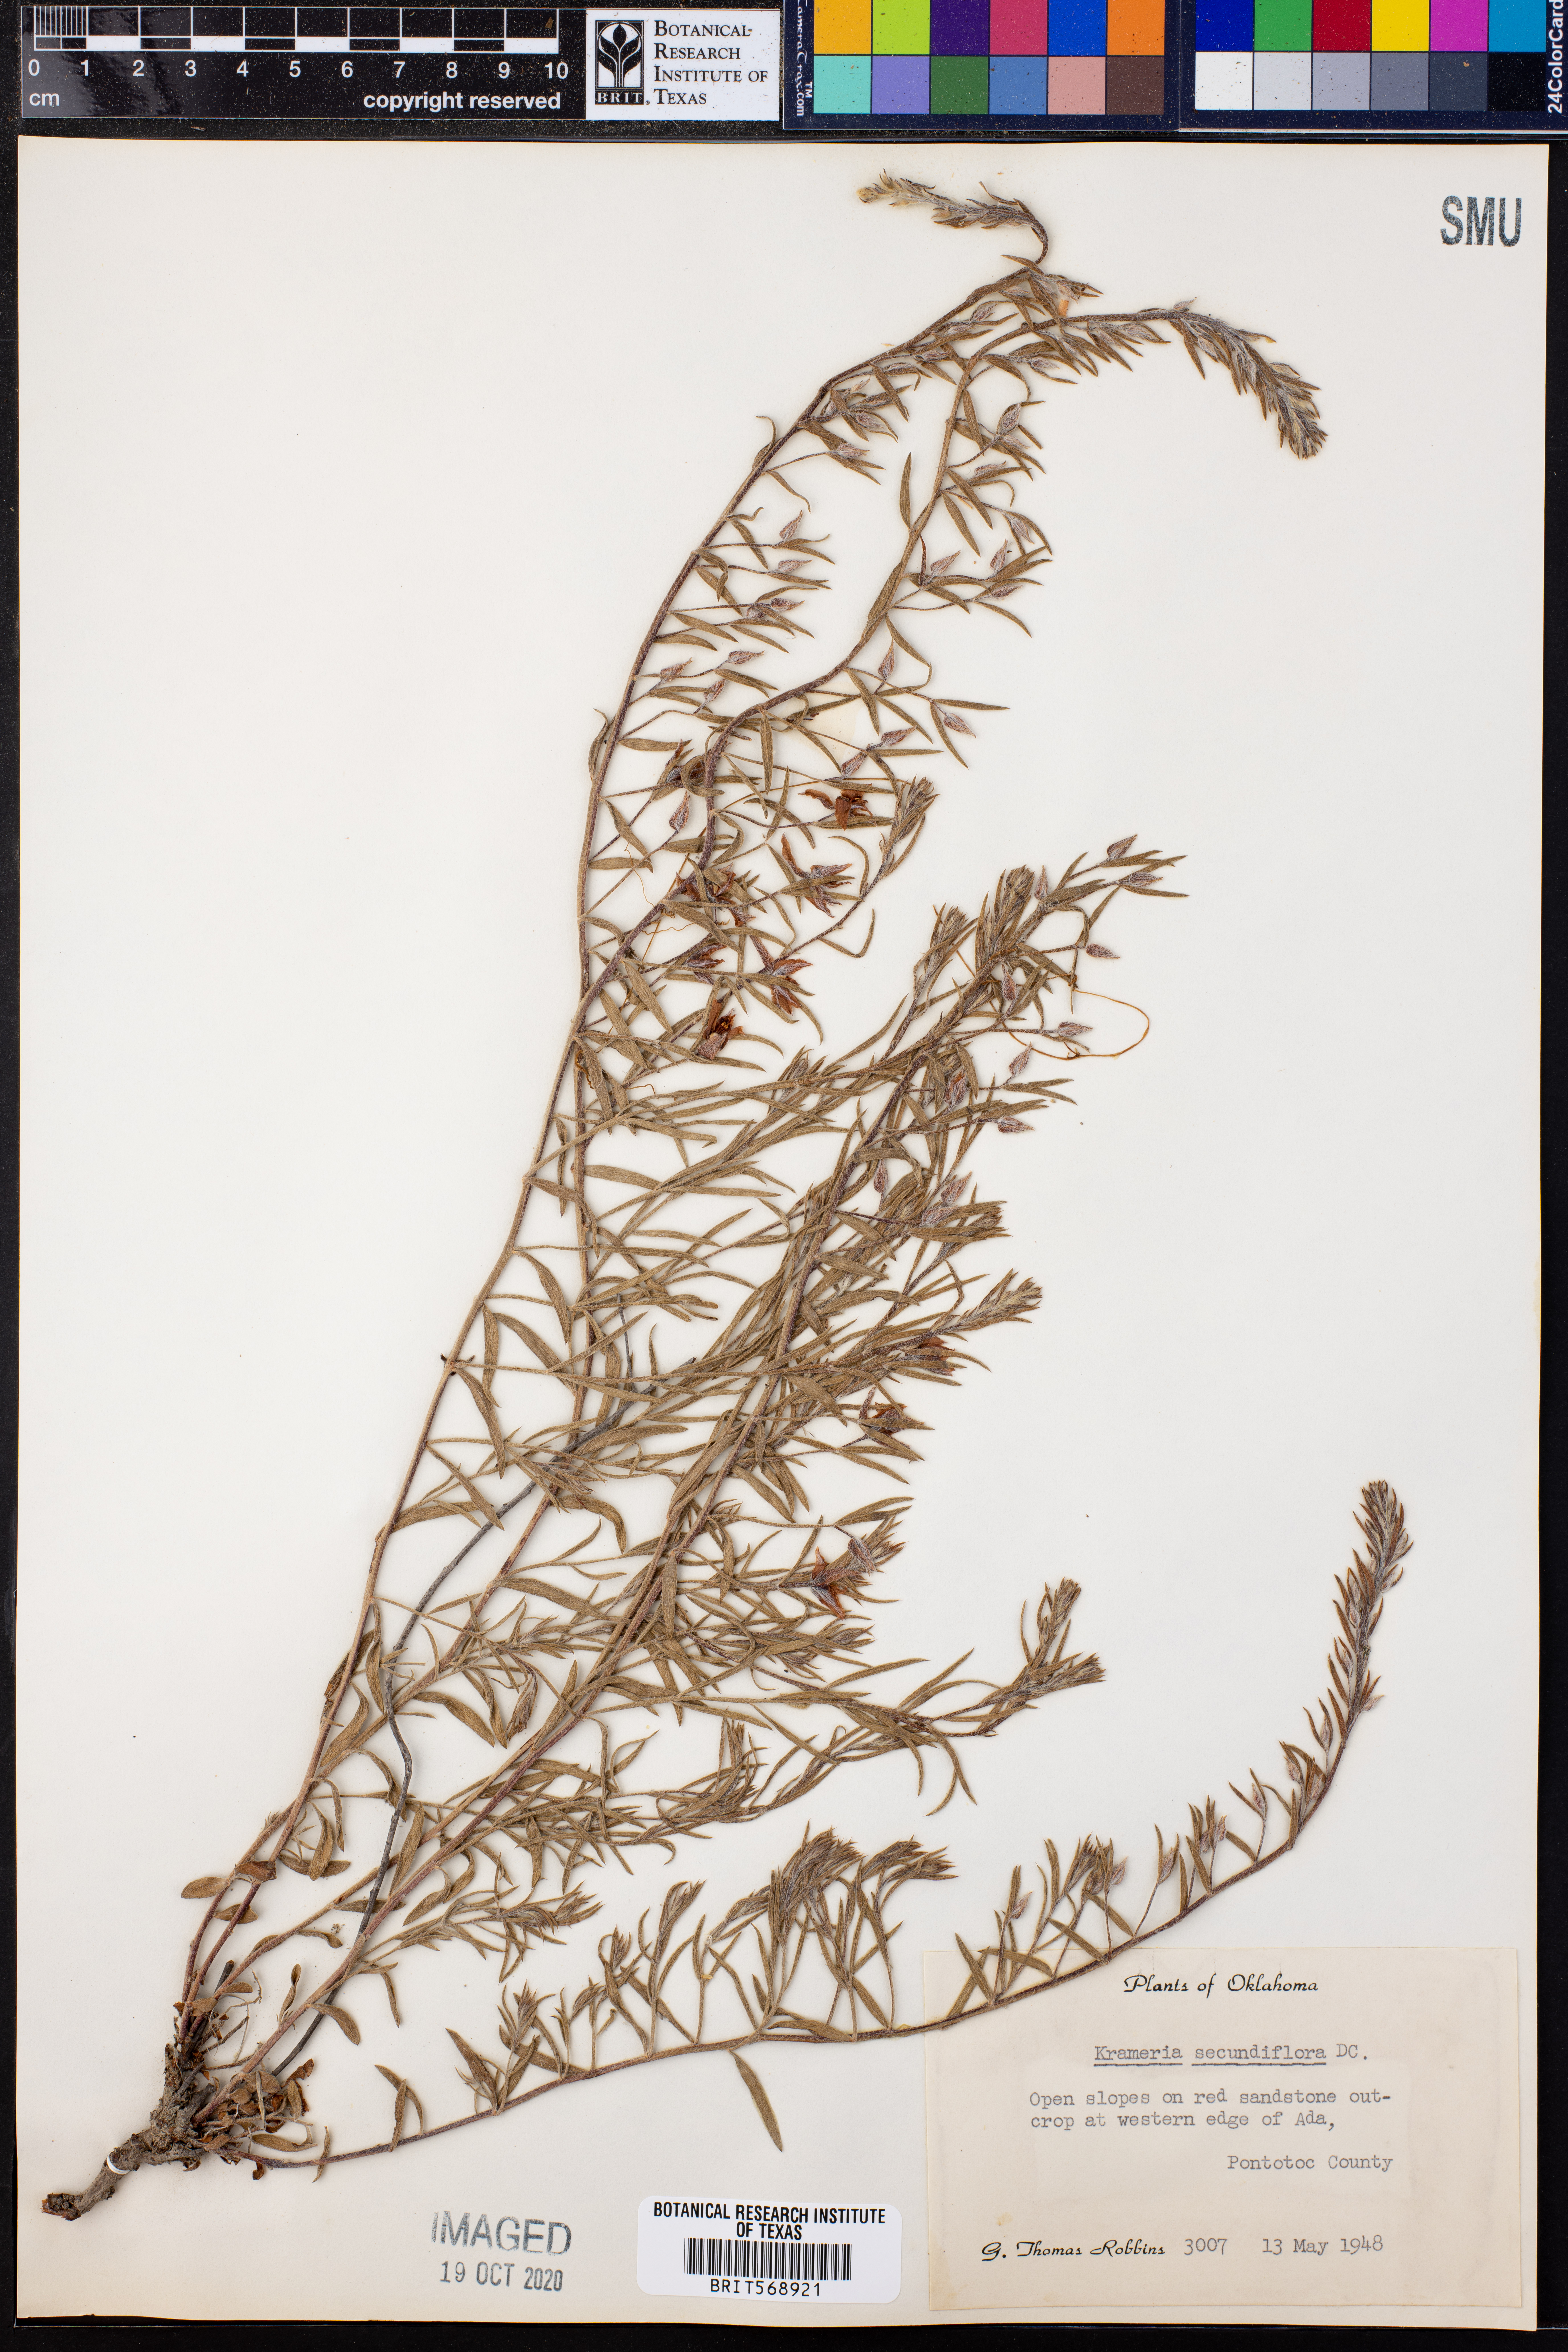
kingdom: Plantae
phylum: Tracheophyta
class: Magnoliopsida
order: Zygophyllales
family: Krameriaceae
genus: Krameria
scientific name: Krameria secundiflora
